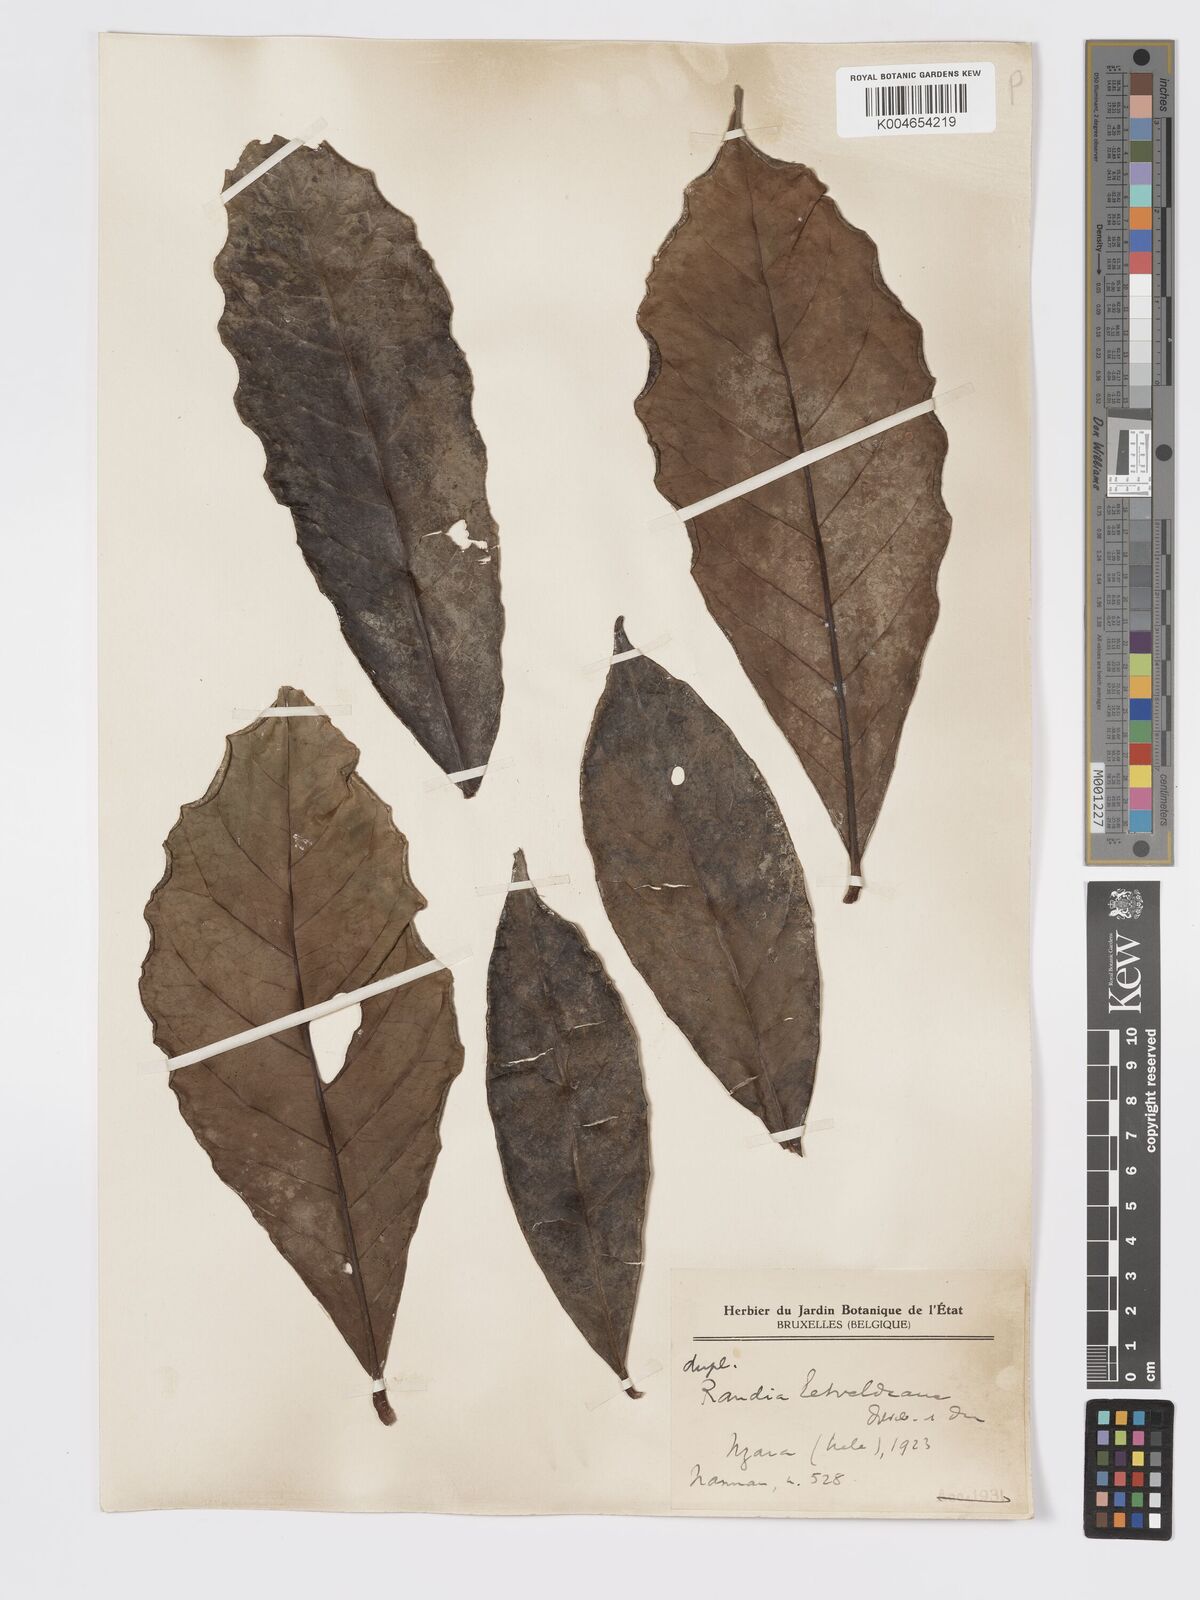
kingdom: Plantae
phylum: Tracheophyta
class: Magnoliopsida
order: Gentianales
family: Rubiaceae
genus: Rothmannia
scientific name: Rothmannia whitfieldii
